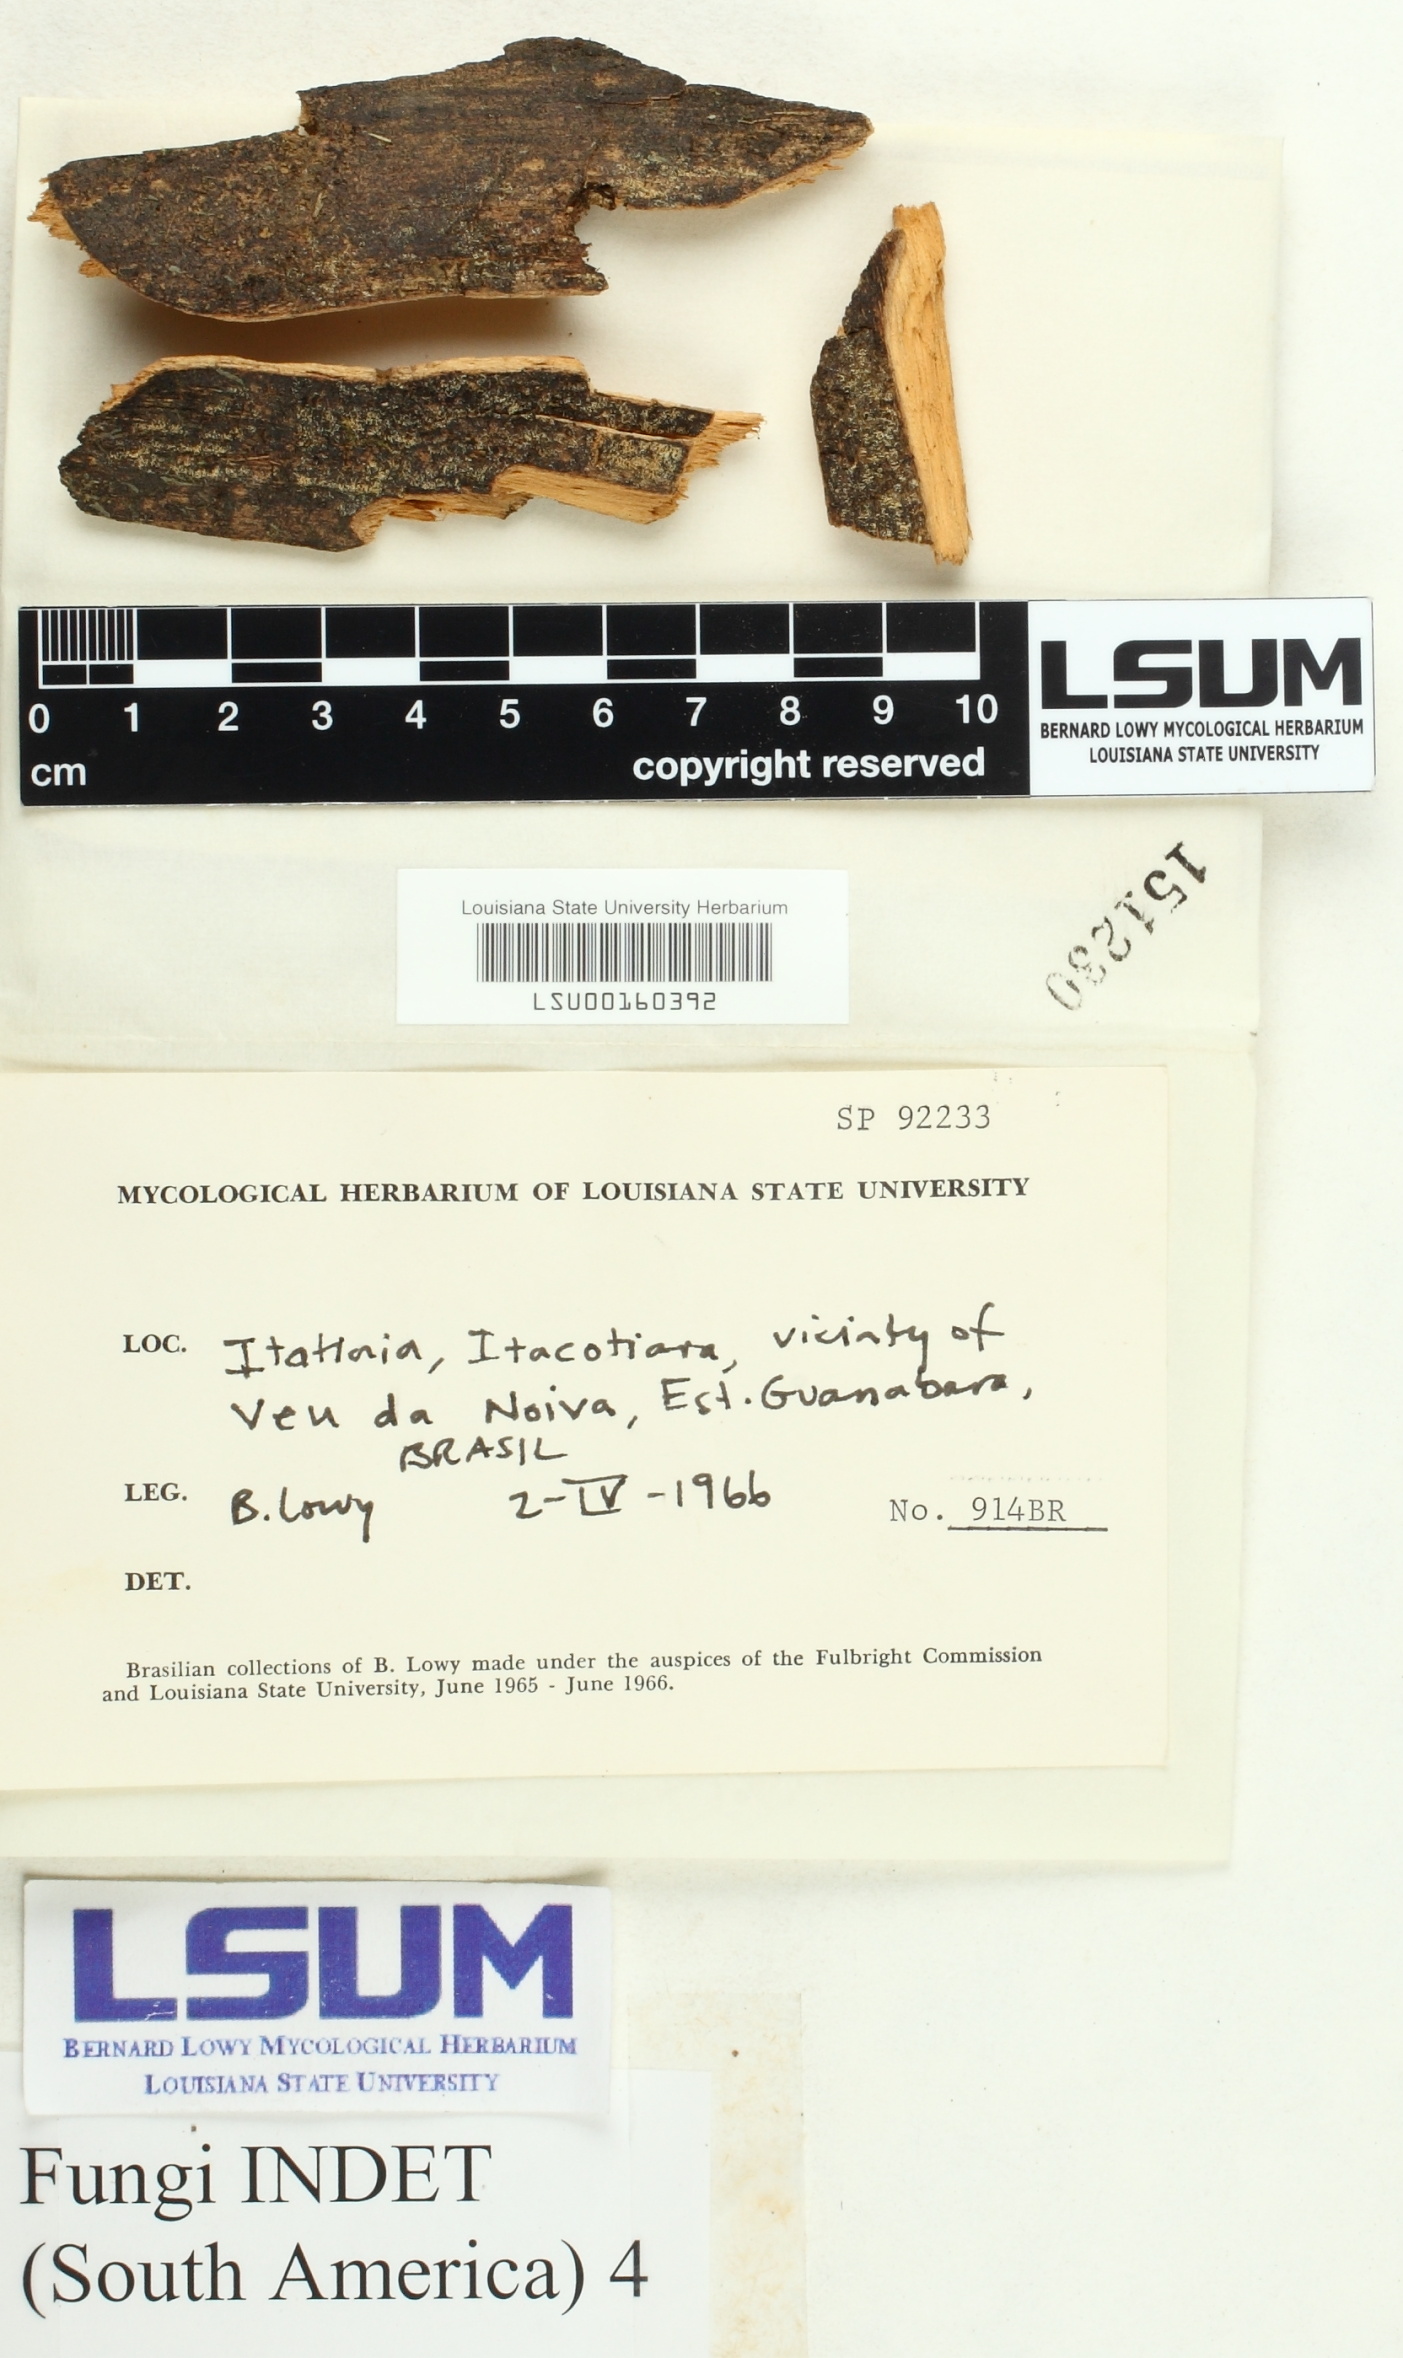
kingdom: Fungi
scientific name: Fungi
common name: Fungi
